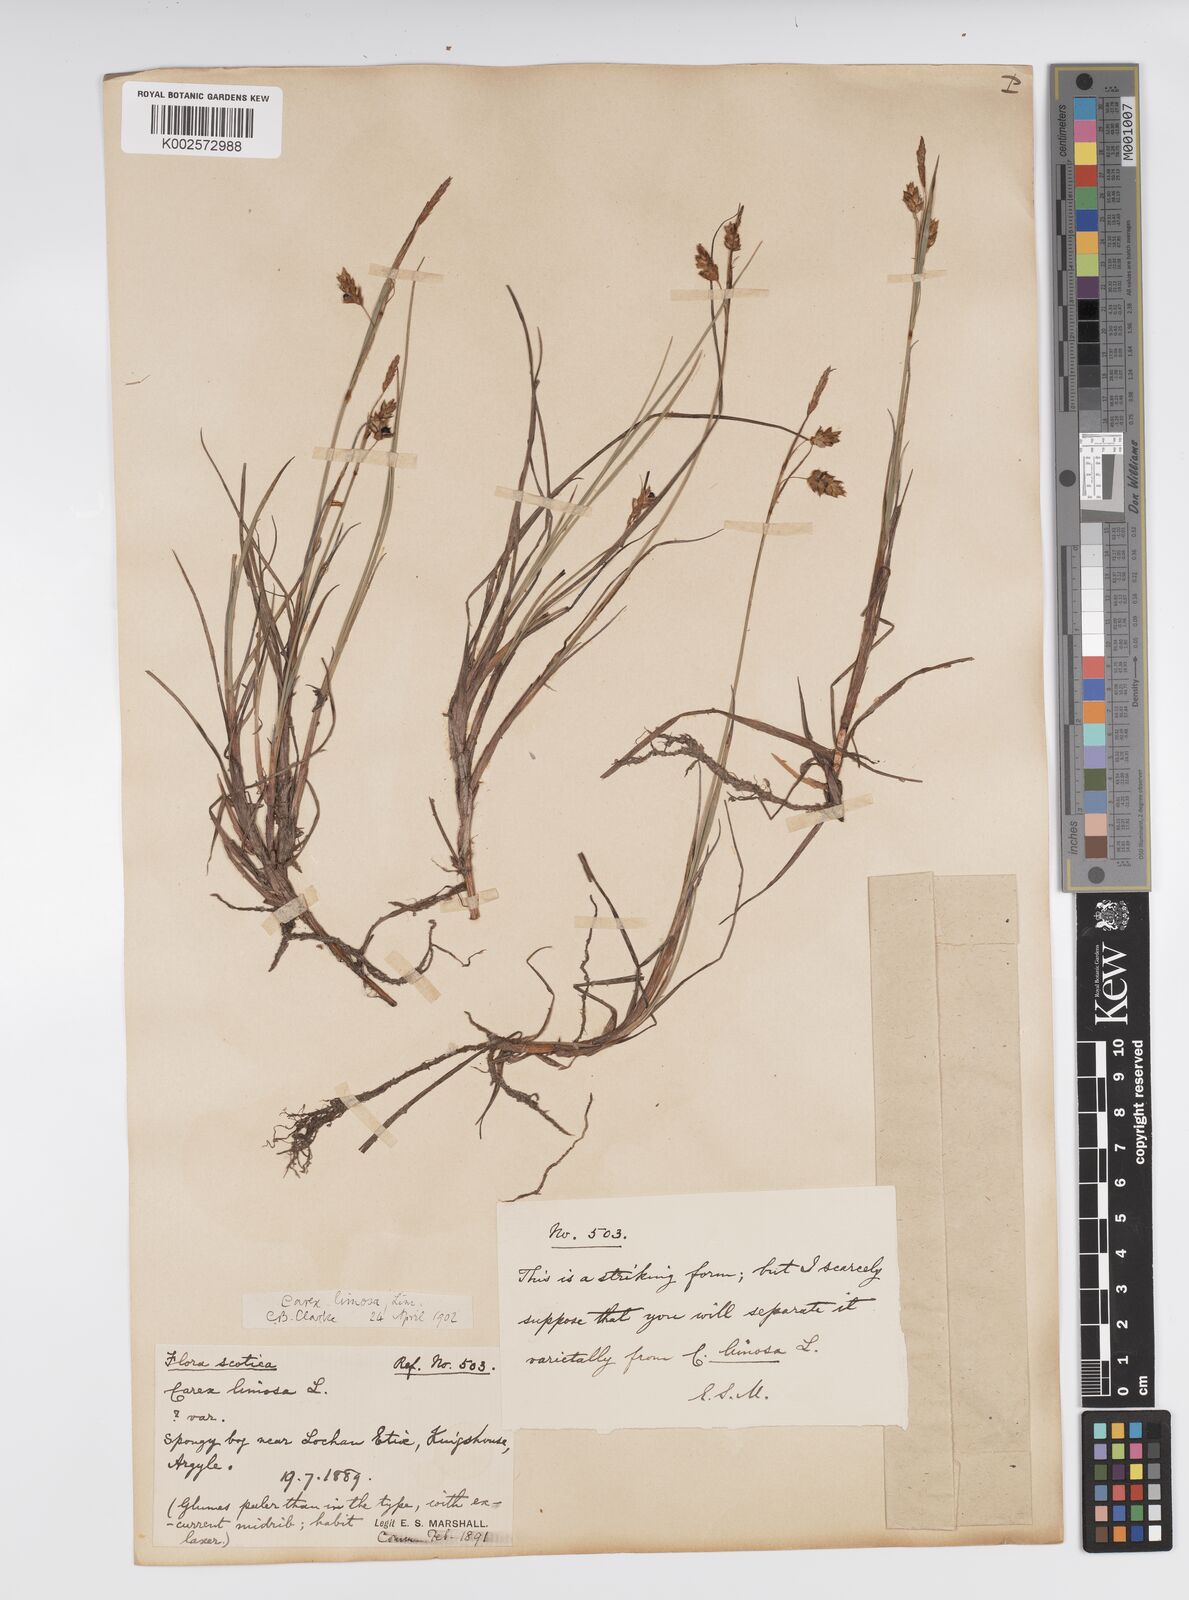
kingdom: Plantae
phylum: Tracheophyta
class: Liliopsida
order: Poales
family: Cyperaceae
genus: Carex
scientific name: Carex limosa
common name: Bog sedge
